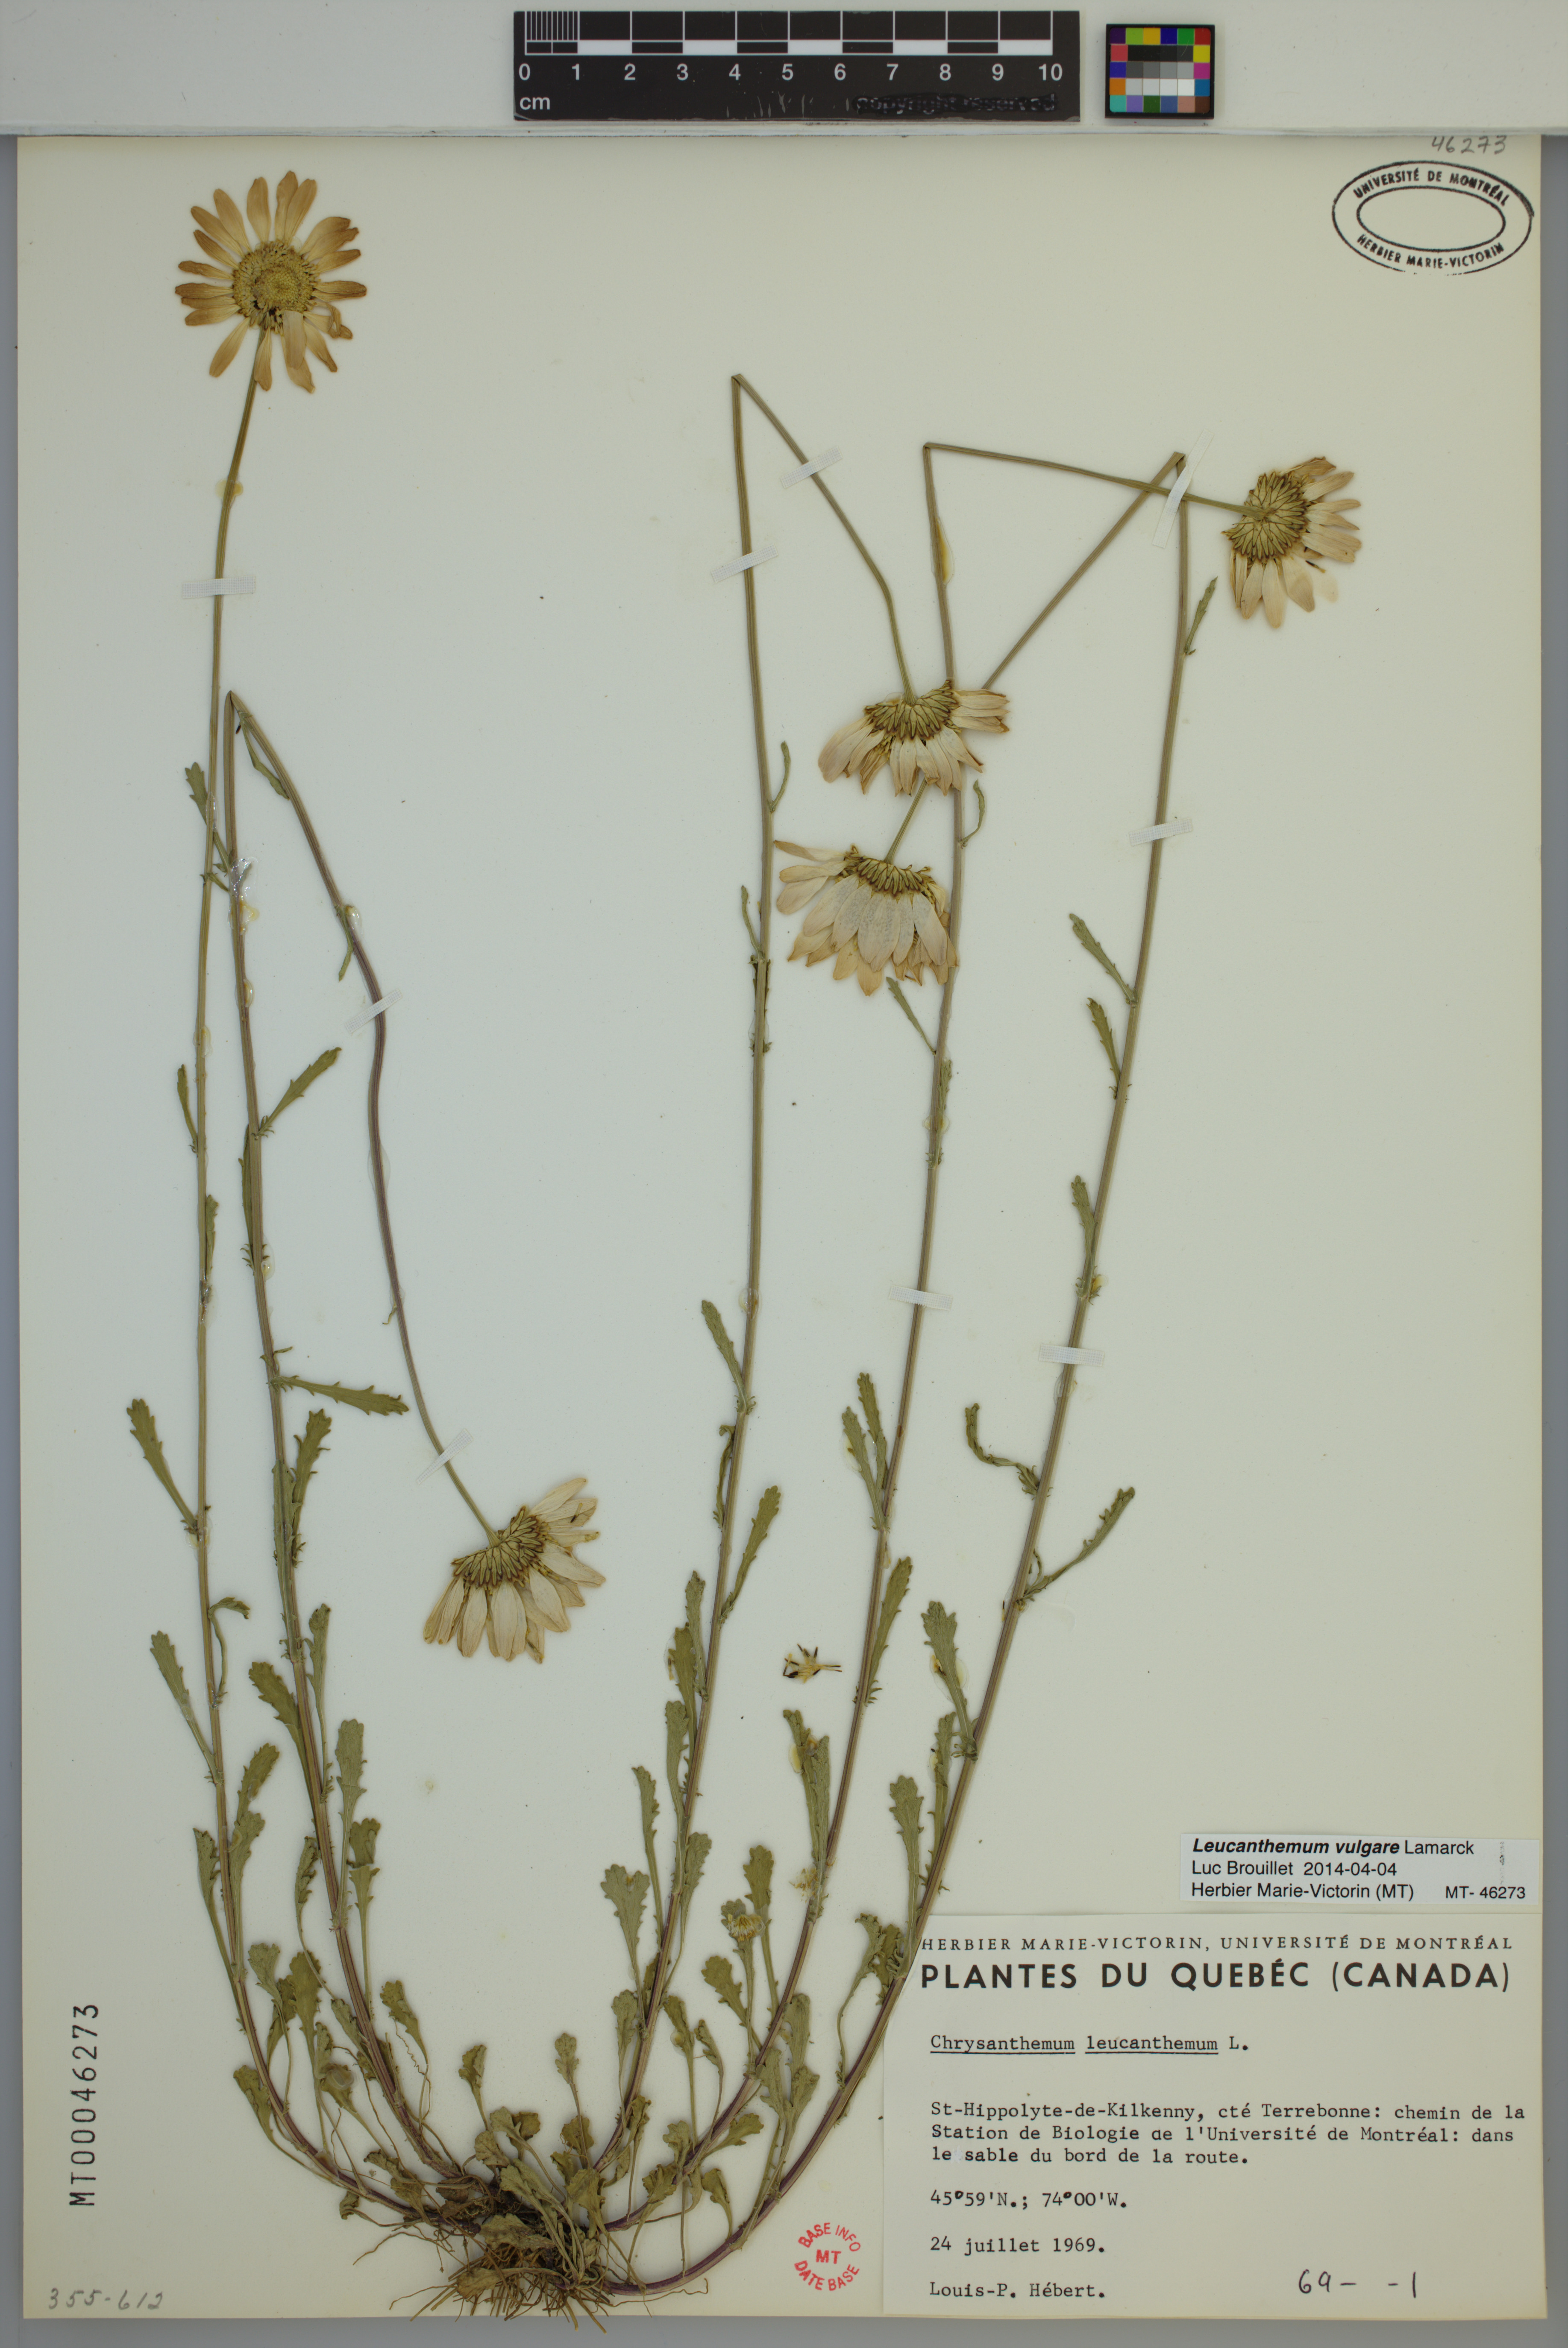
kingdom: Plantae
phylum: Tracheophyta
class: Magnoliopsida
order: Asterales
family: Asteraceae
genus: Leucanthemum
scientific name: Leucanthemum vulgare
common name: Oxeye daisy
